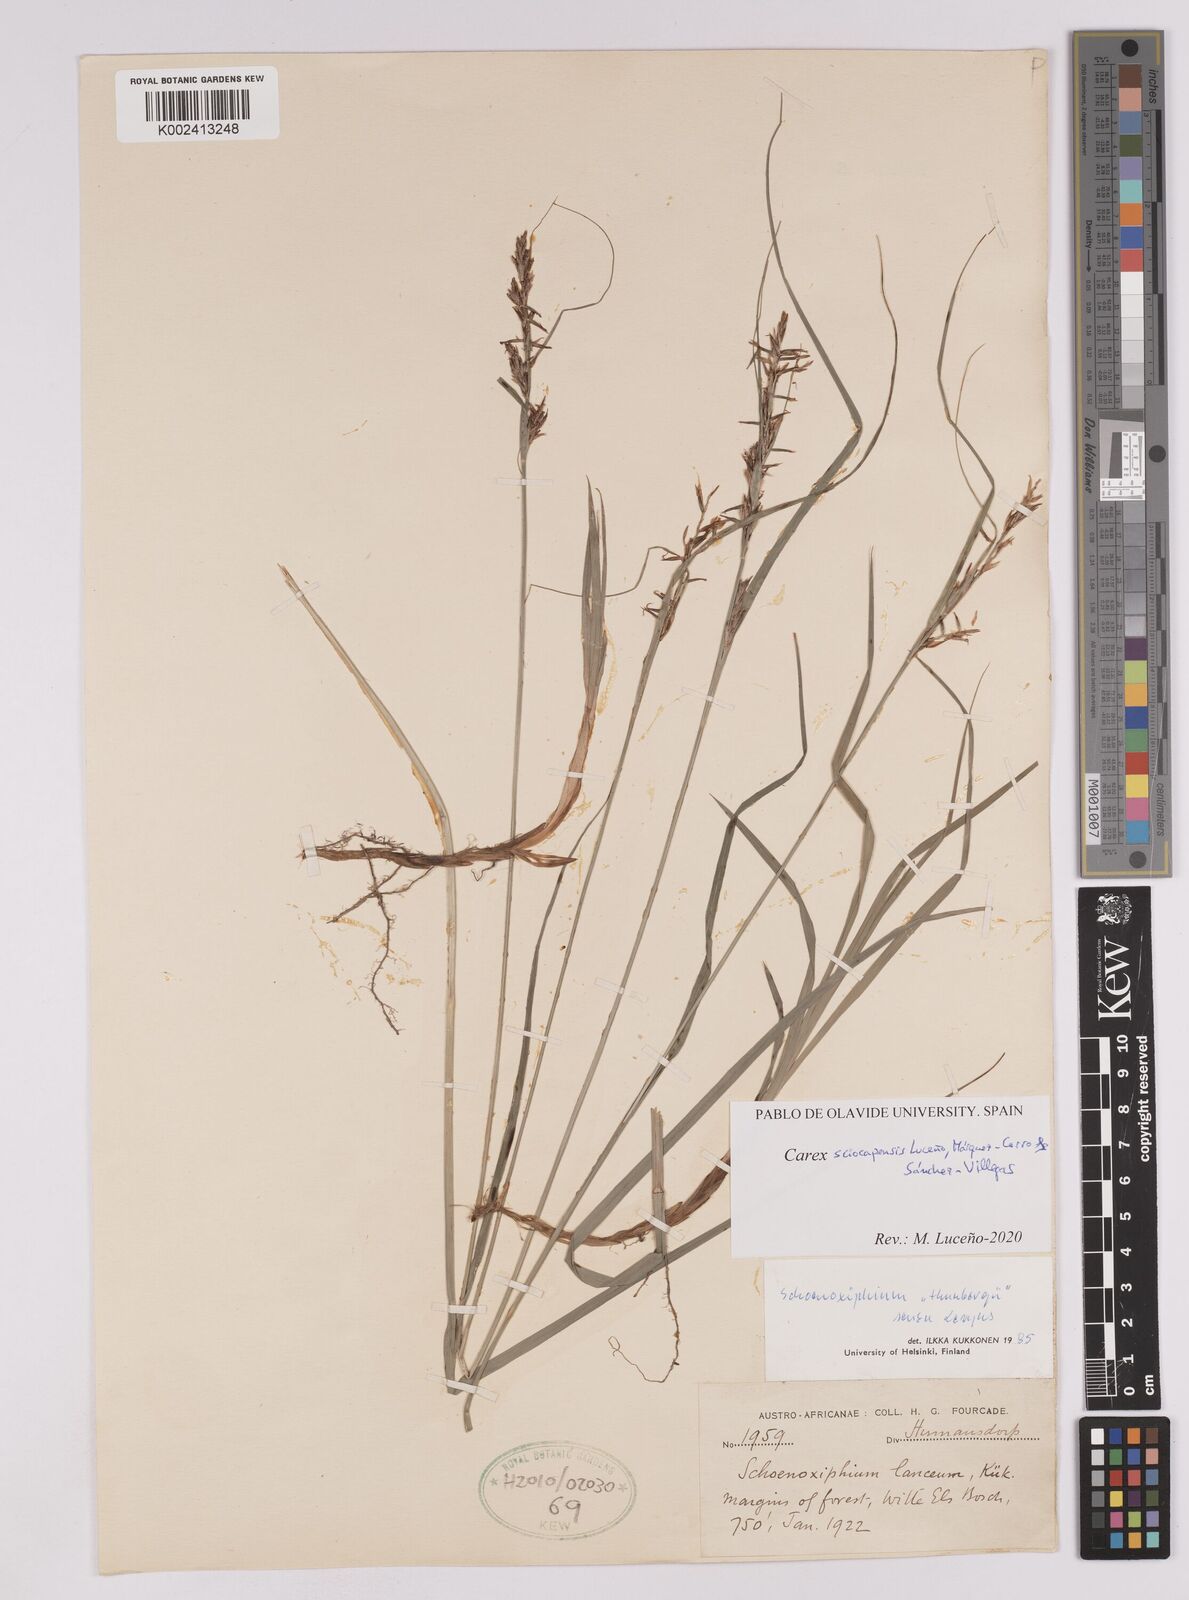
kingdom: Plantae
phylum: Tracheophyta
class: Liliopsida
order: Poales
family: Cyperaceae
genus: Carex
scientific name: Carex lancea
